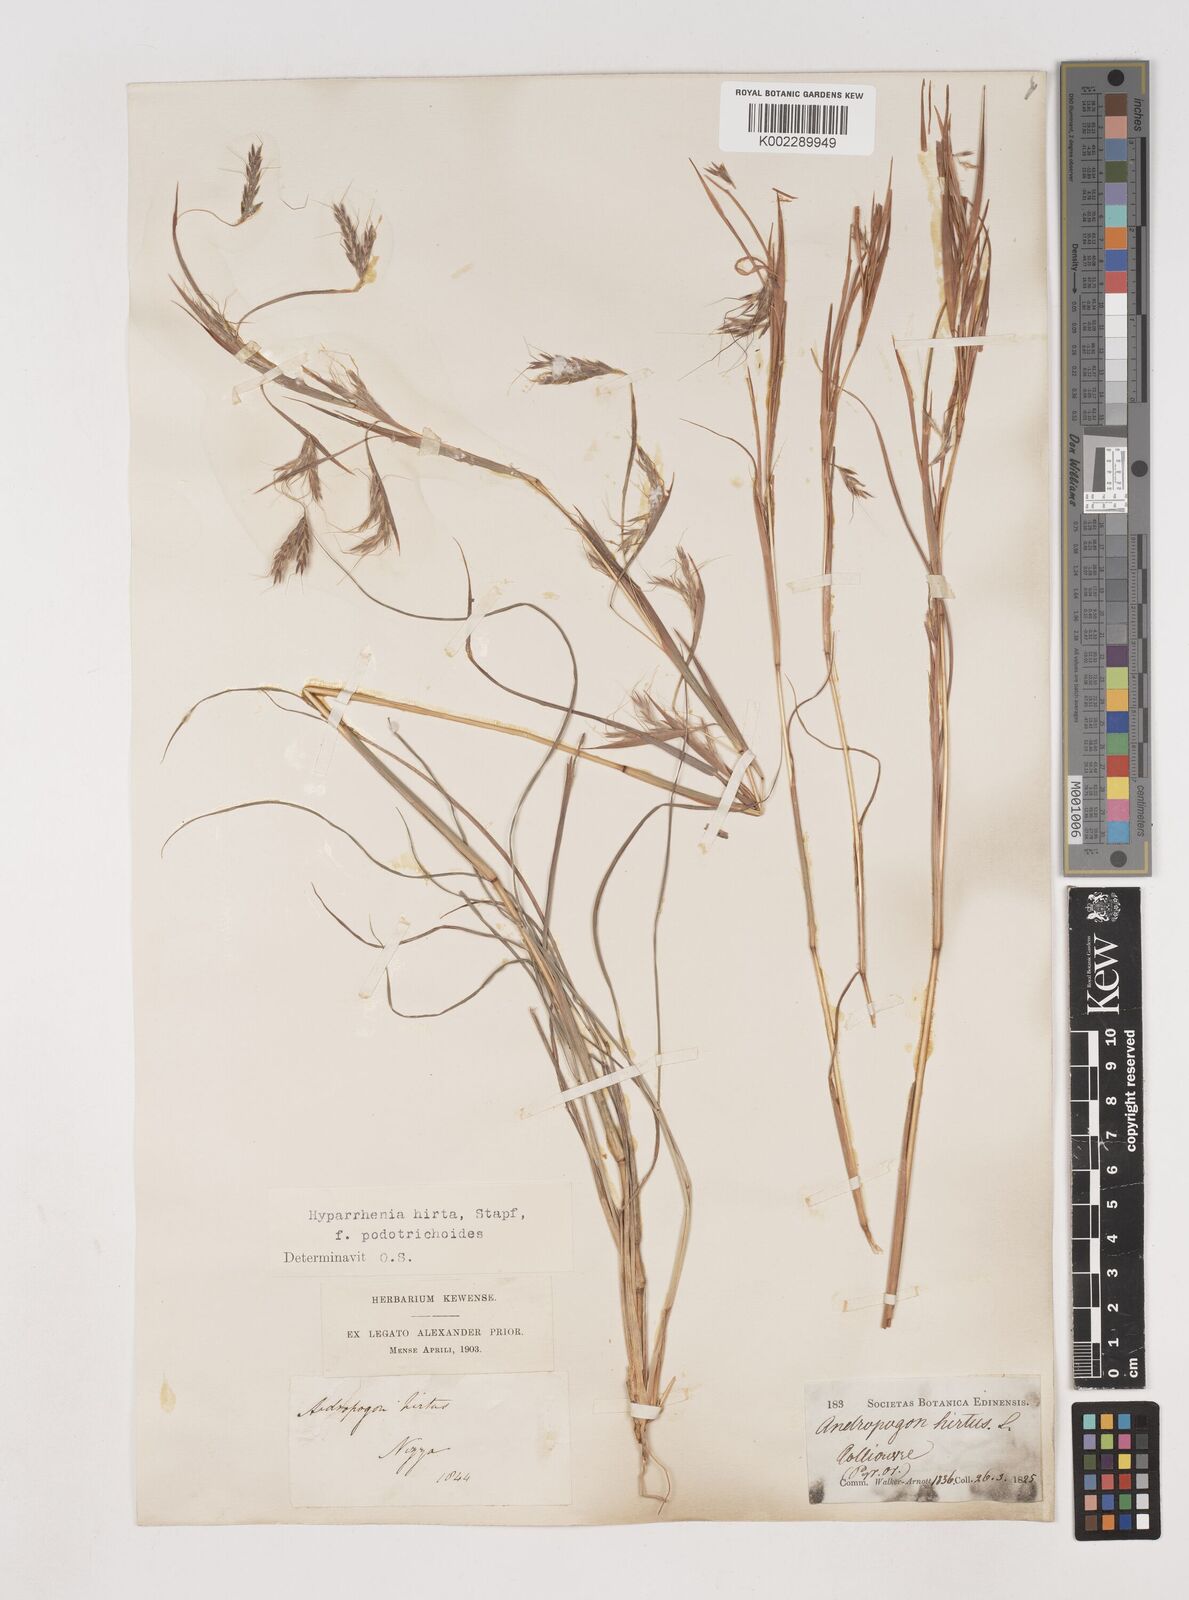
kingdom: Plantae
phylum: Tracheophyta
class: Liliopsida
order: Poales
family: Poaceae
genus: Hyparrhenia
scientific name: Hyparrhenia hirta
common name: Thatching grass
